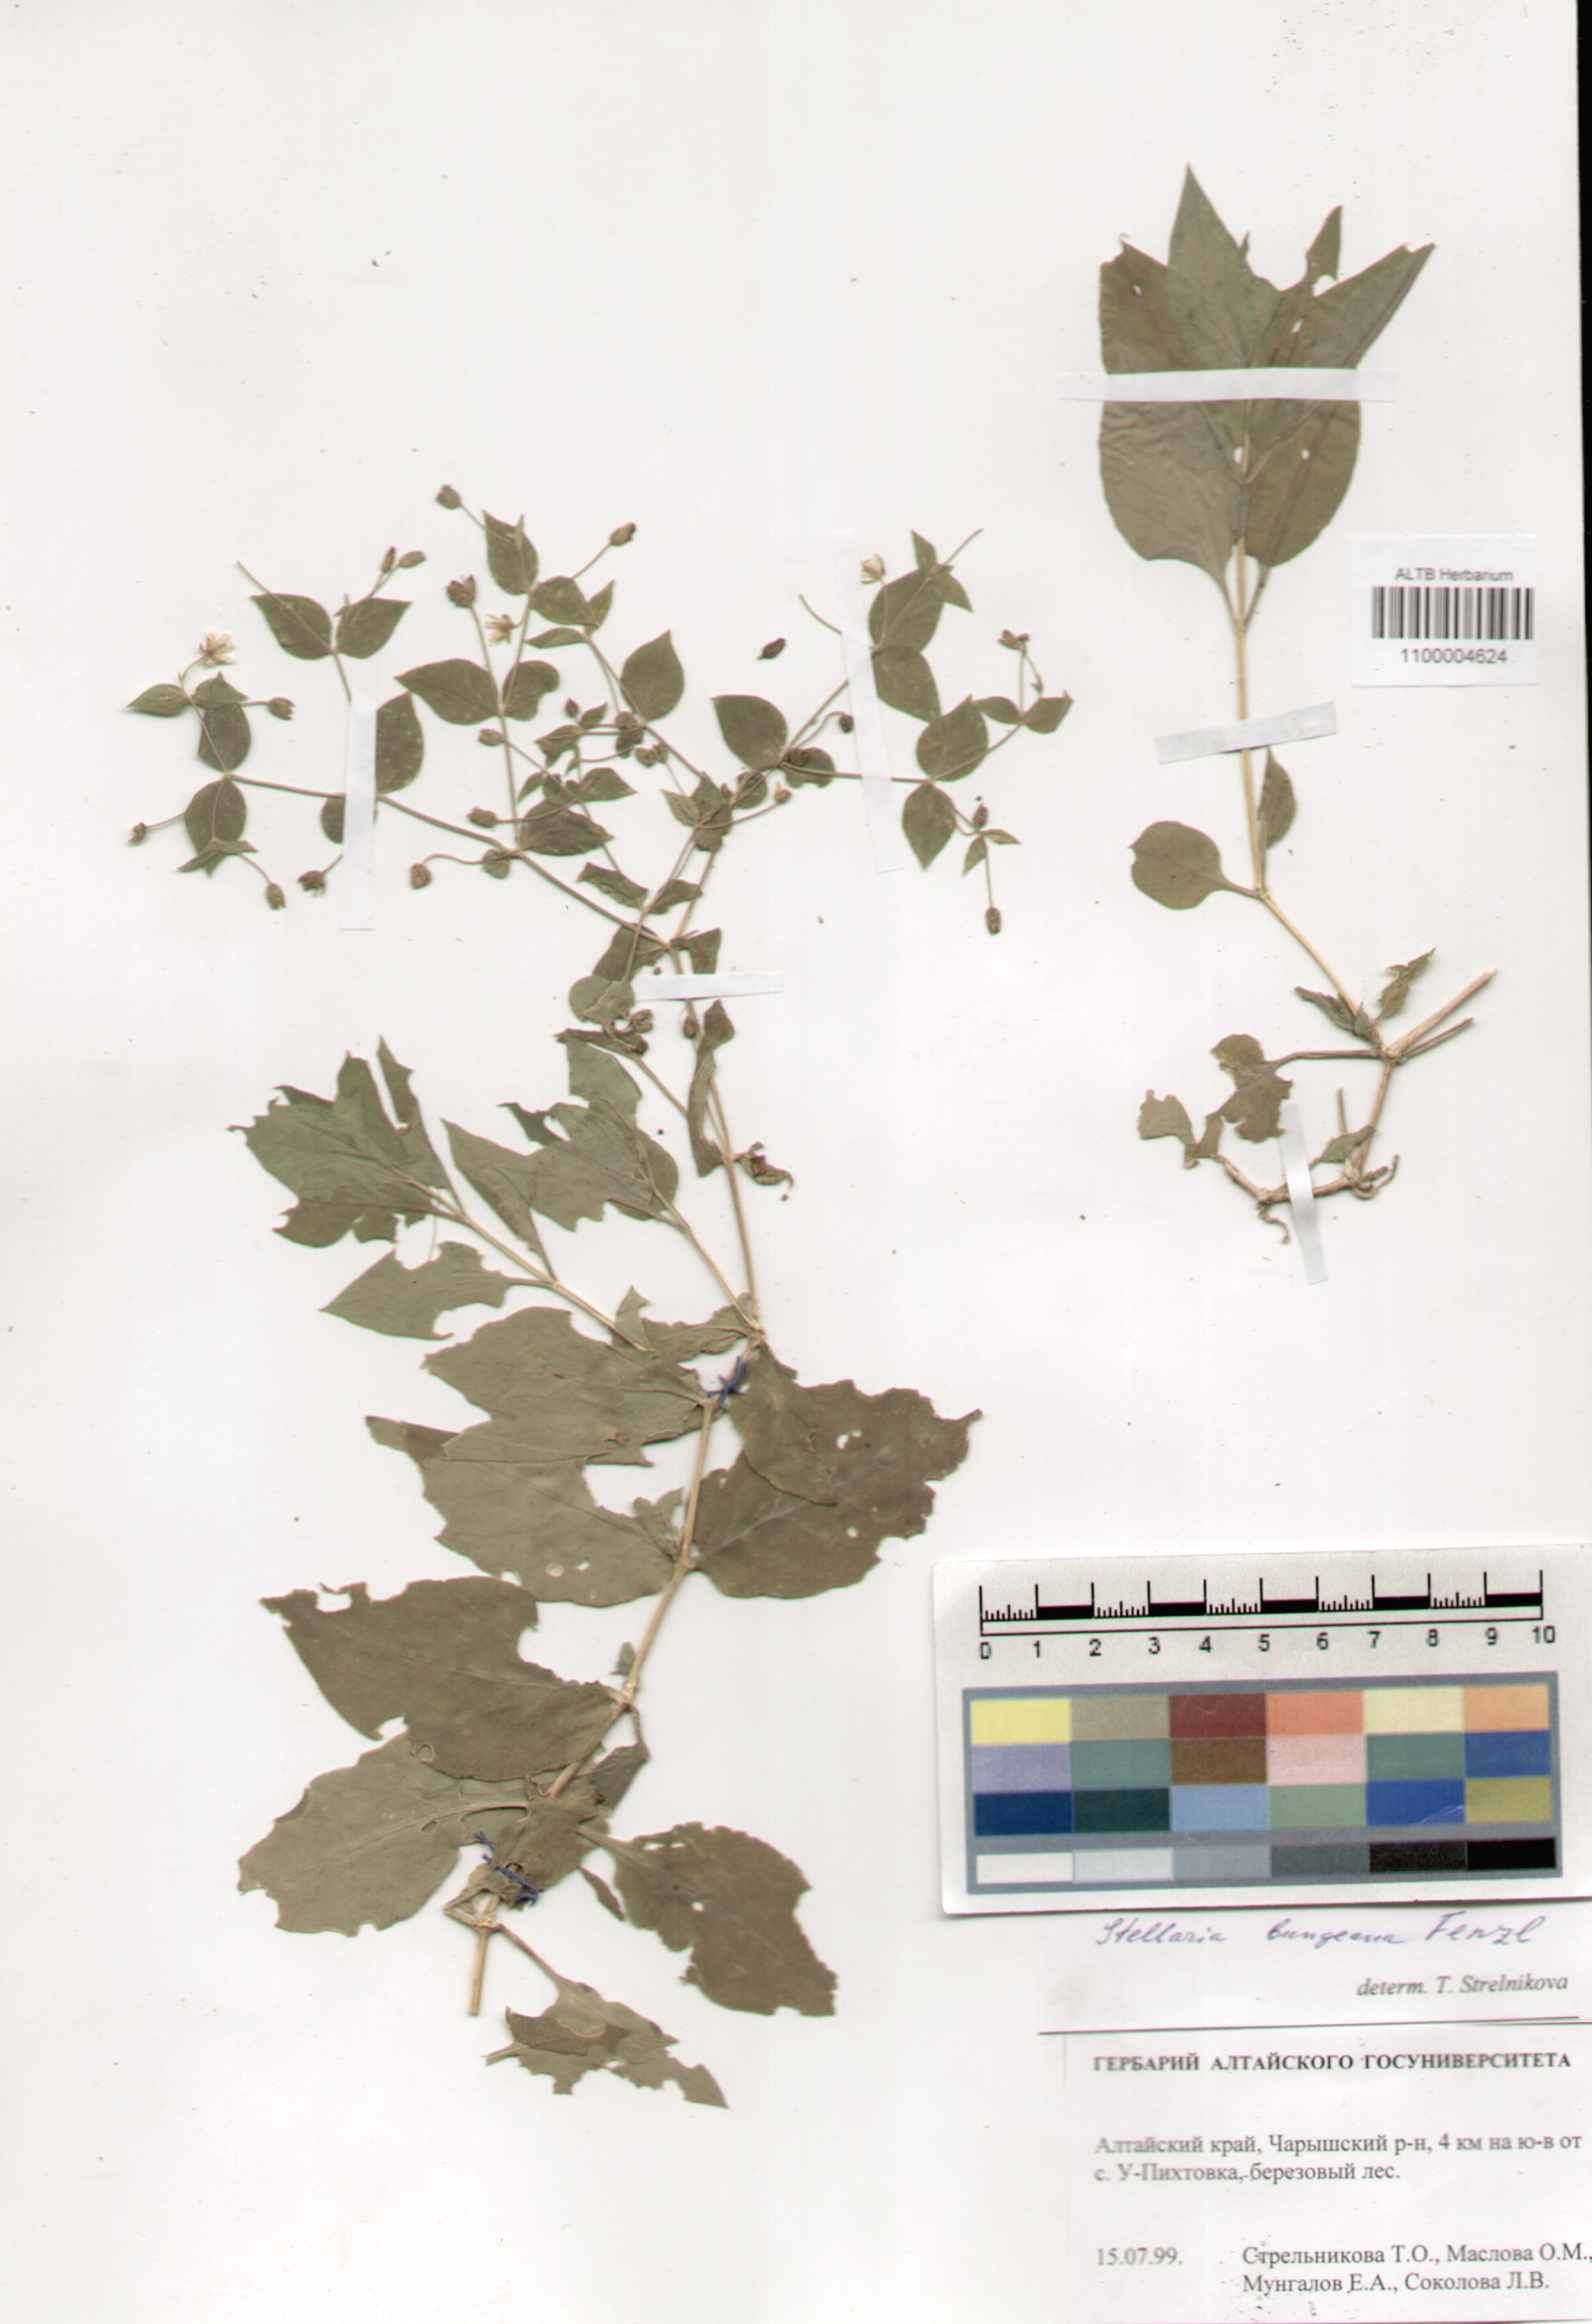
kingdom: Plantae
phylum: Tracheophyta
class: Magnoliopsida
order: Caryophyllales
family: Caryophyllaceae
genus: Stellaria
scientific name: Stellaria bungeana
